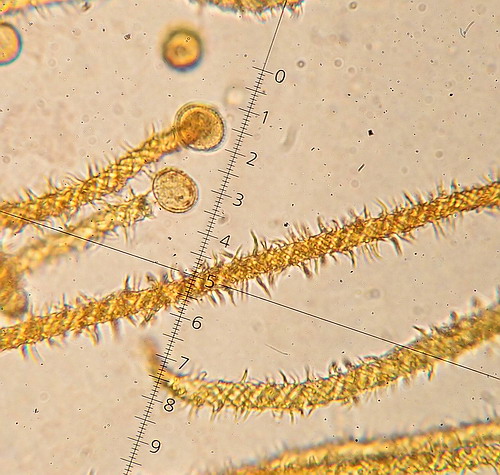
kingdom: Protozoa
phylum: Mycetozoa
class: Myxomycetes
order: Trichiales
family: Trichiaceae
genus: Metatrichia
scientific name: Metatrichia vesparia
